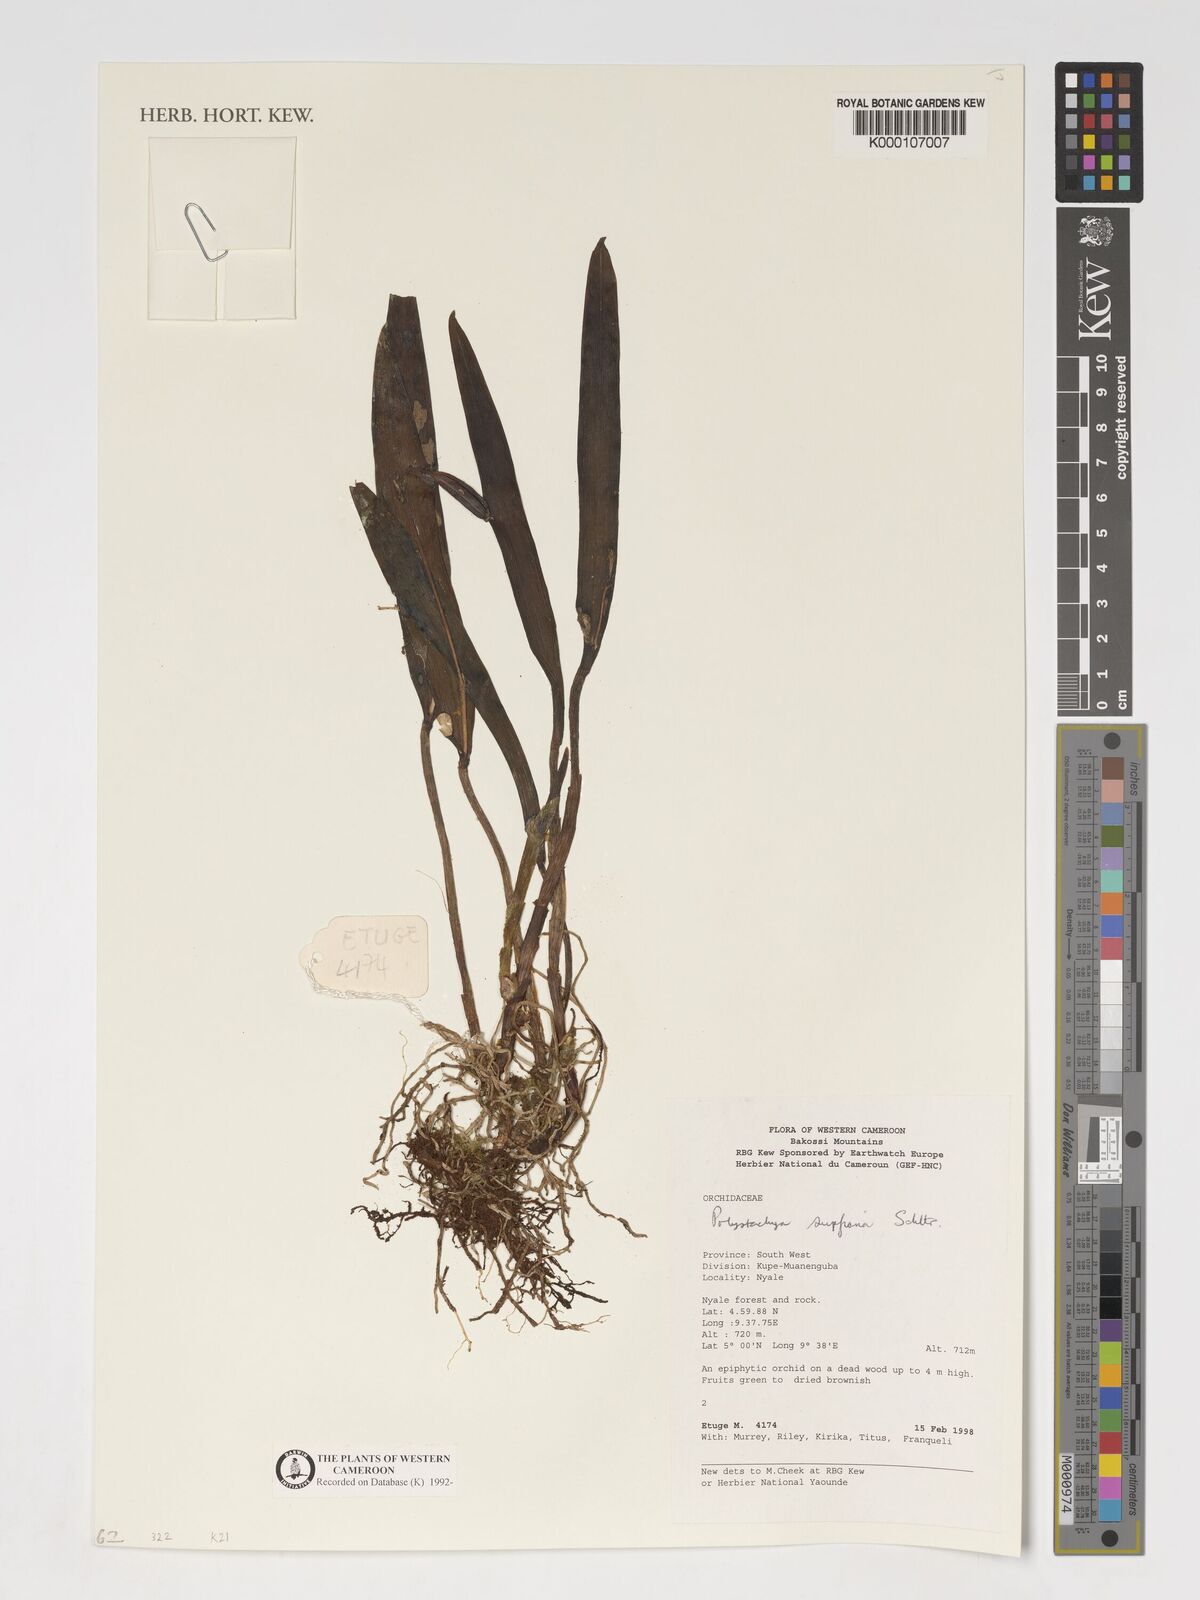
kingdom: Plantae
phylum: Tracheophyta
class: Liliopsida
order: Asparagales
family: Orchidaceae
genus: Polystachya
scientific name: Polystachya supfiana
